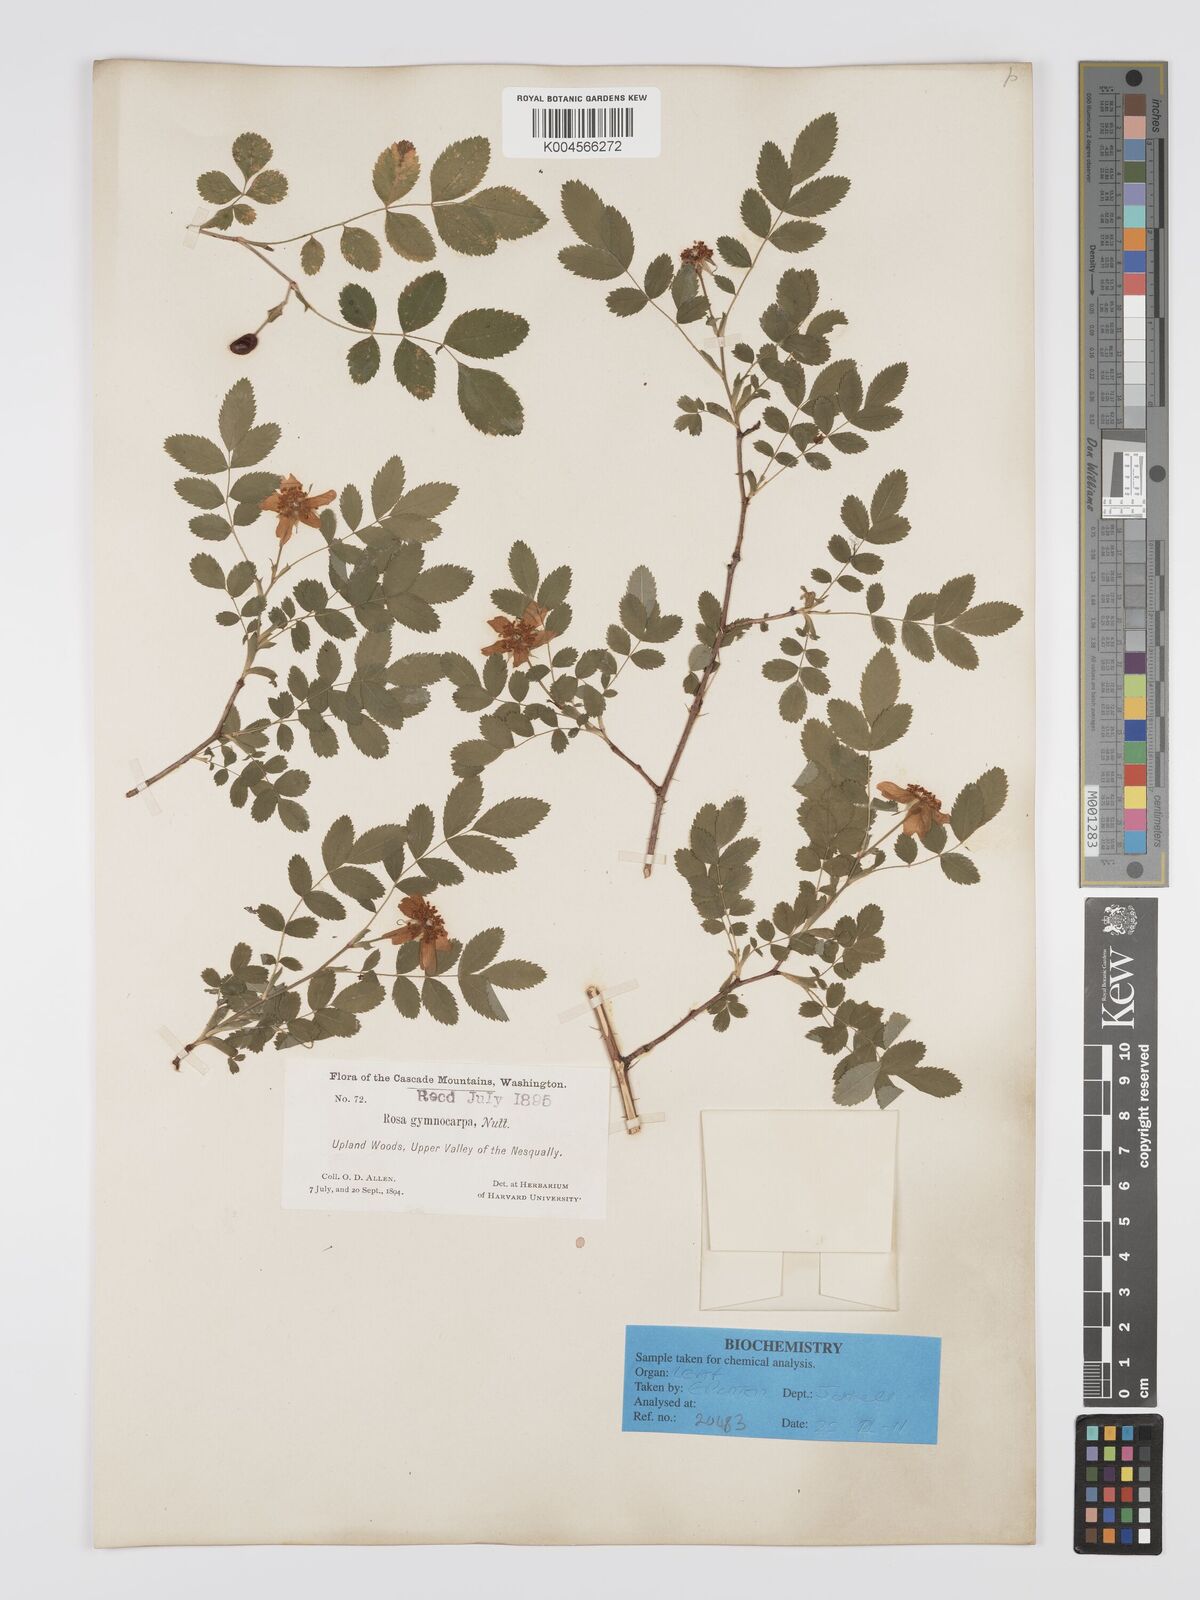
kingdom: Plantae
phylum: Tracheophyta
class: Magnoliopsida
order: Rosales
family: Rosaceae
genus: Rosa
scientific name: Rosa gymnocarpa
